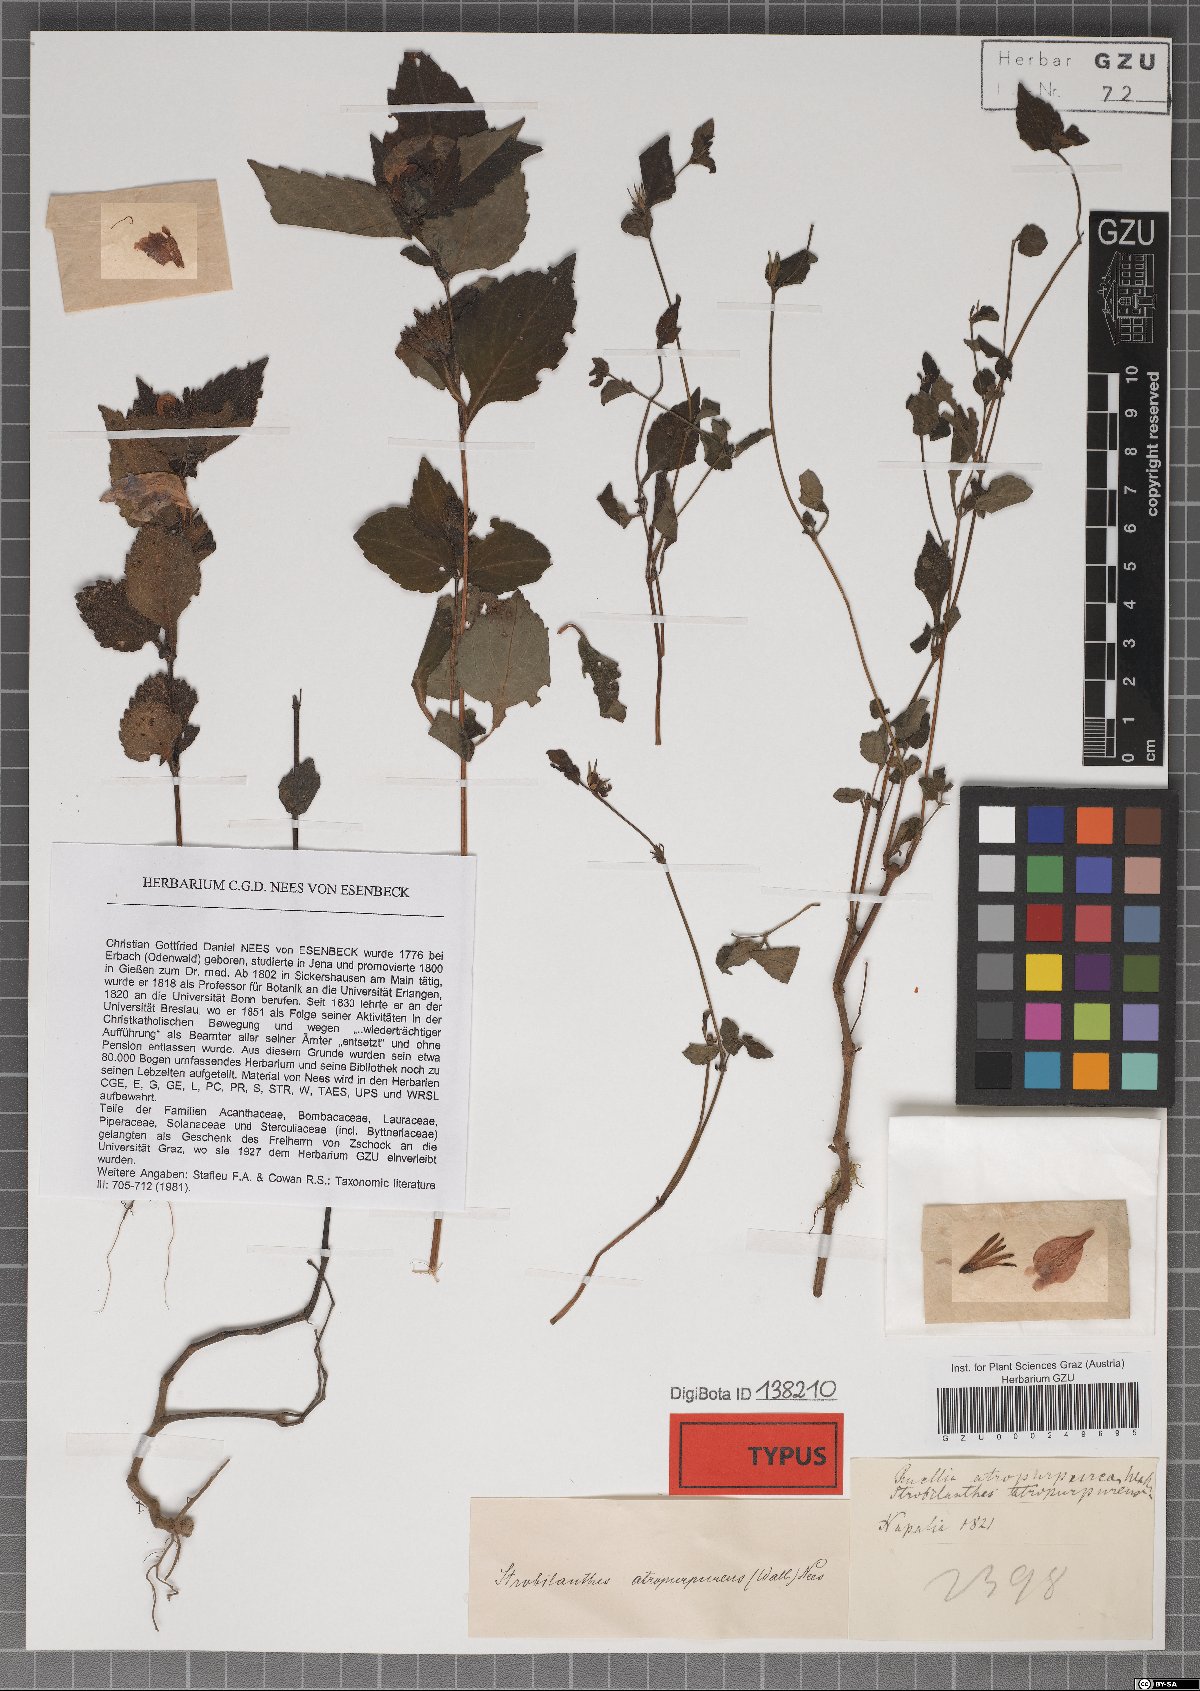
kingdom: Plantae
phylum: Tracheophyta
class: Magnoliopsida
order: Lamiales
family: Acanthaceae
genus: Strobilanthes
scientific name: Strobilanthes atropurpurea
